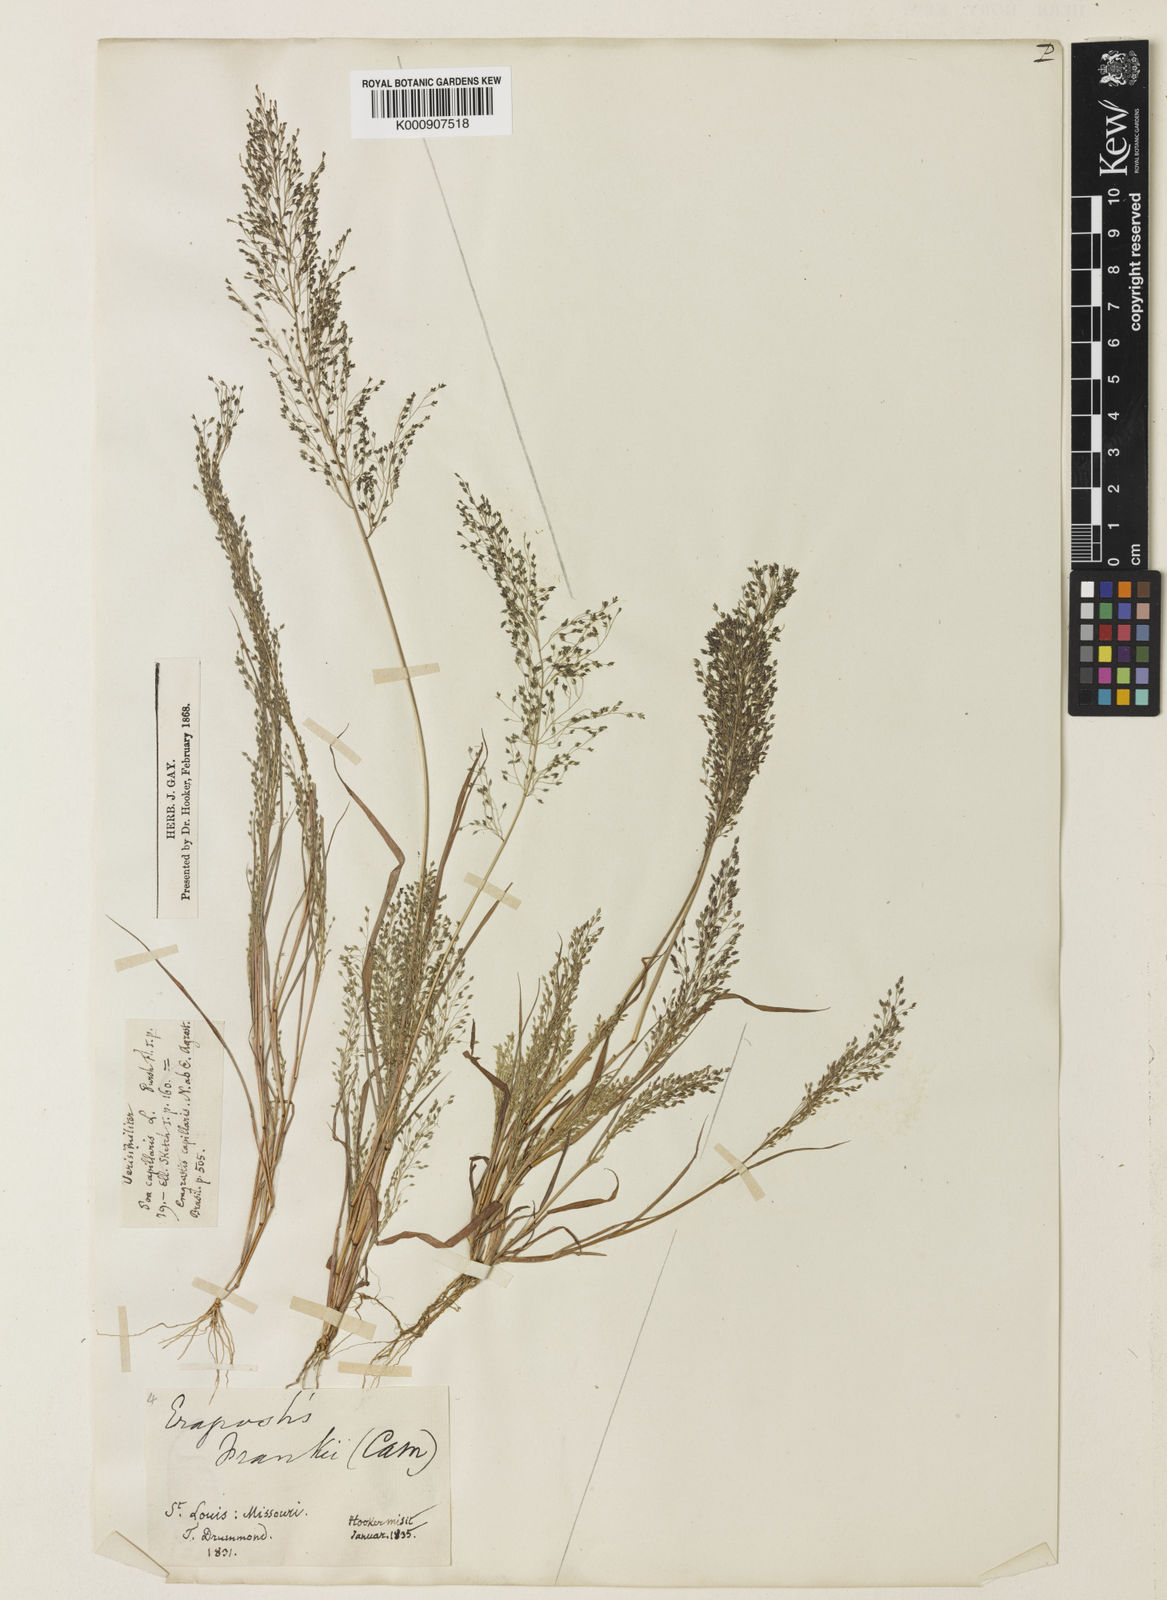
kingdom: Plantae
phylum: Tracheophyta
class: Liliopsida
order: Poales
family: Poaceae
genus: Eragrostis
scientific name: Eragrostis
